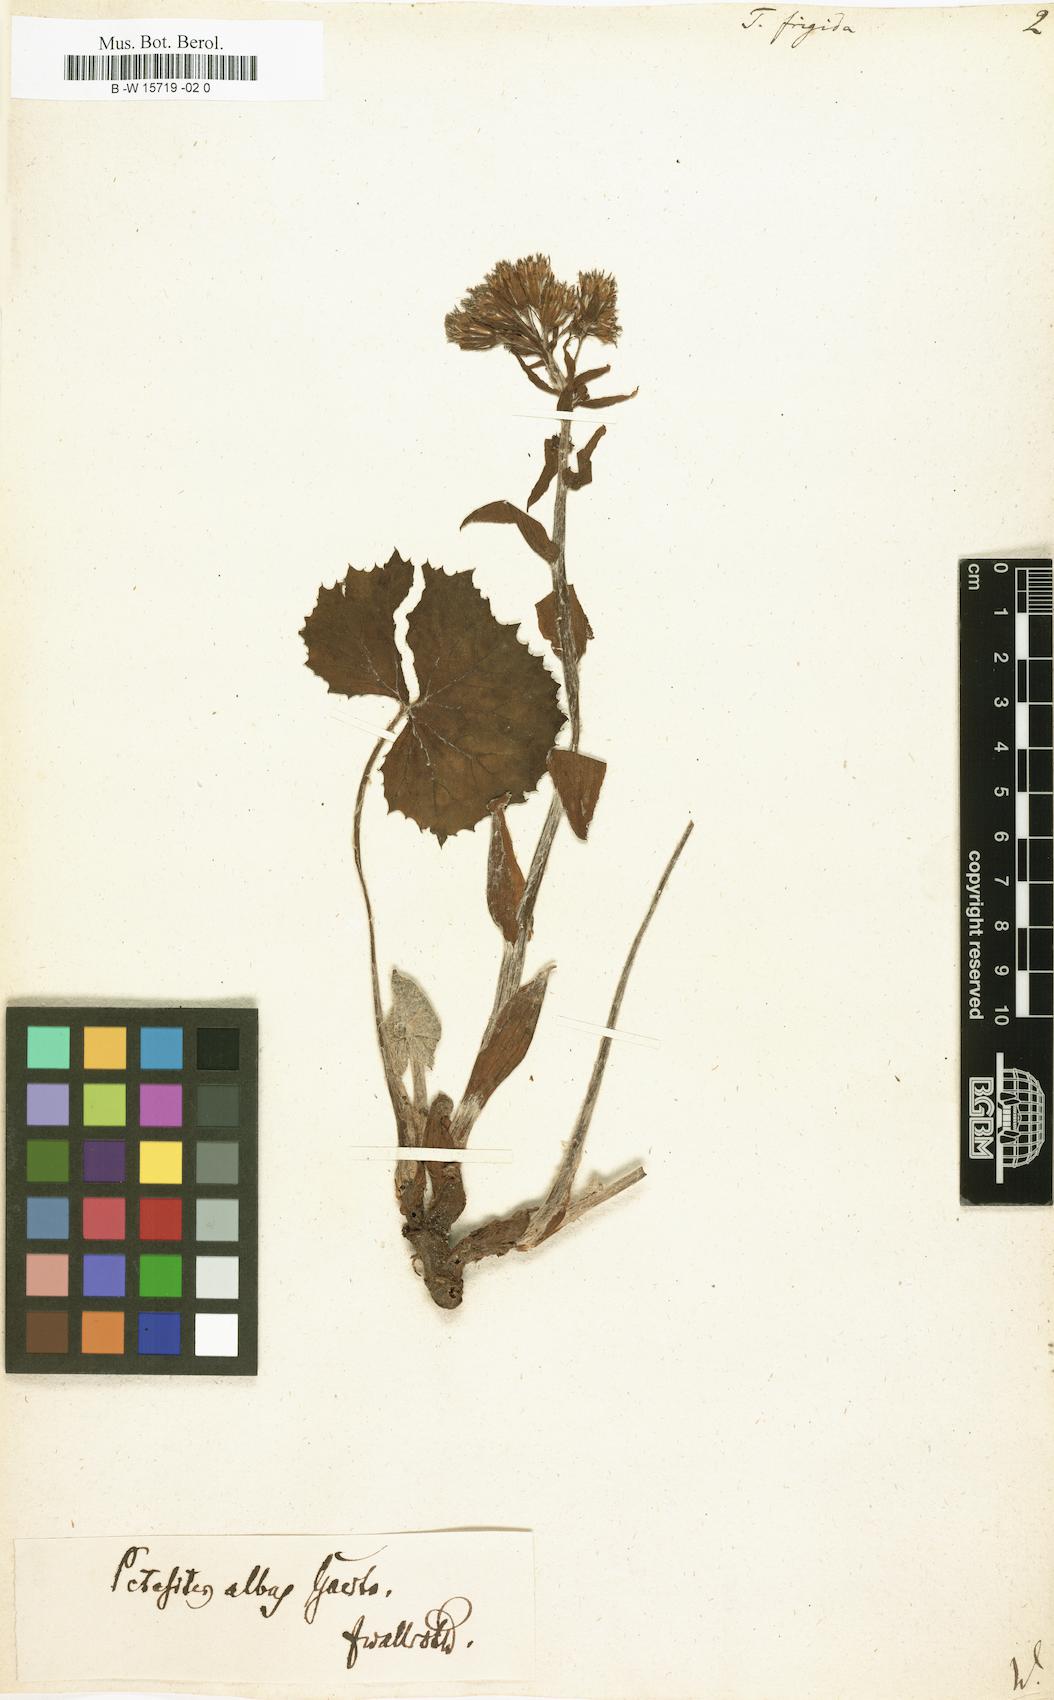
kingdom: Plantae
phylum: Tracheophyta
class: Magnoliopsida
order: Asterales
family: Asteraceae
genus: Petasites
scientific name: Petasites
